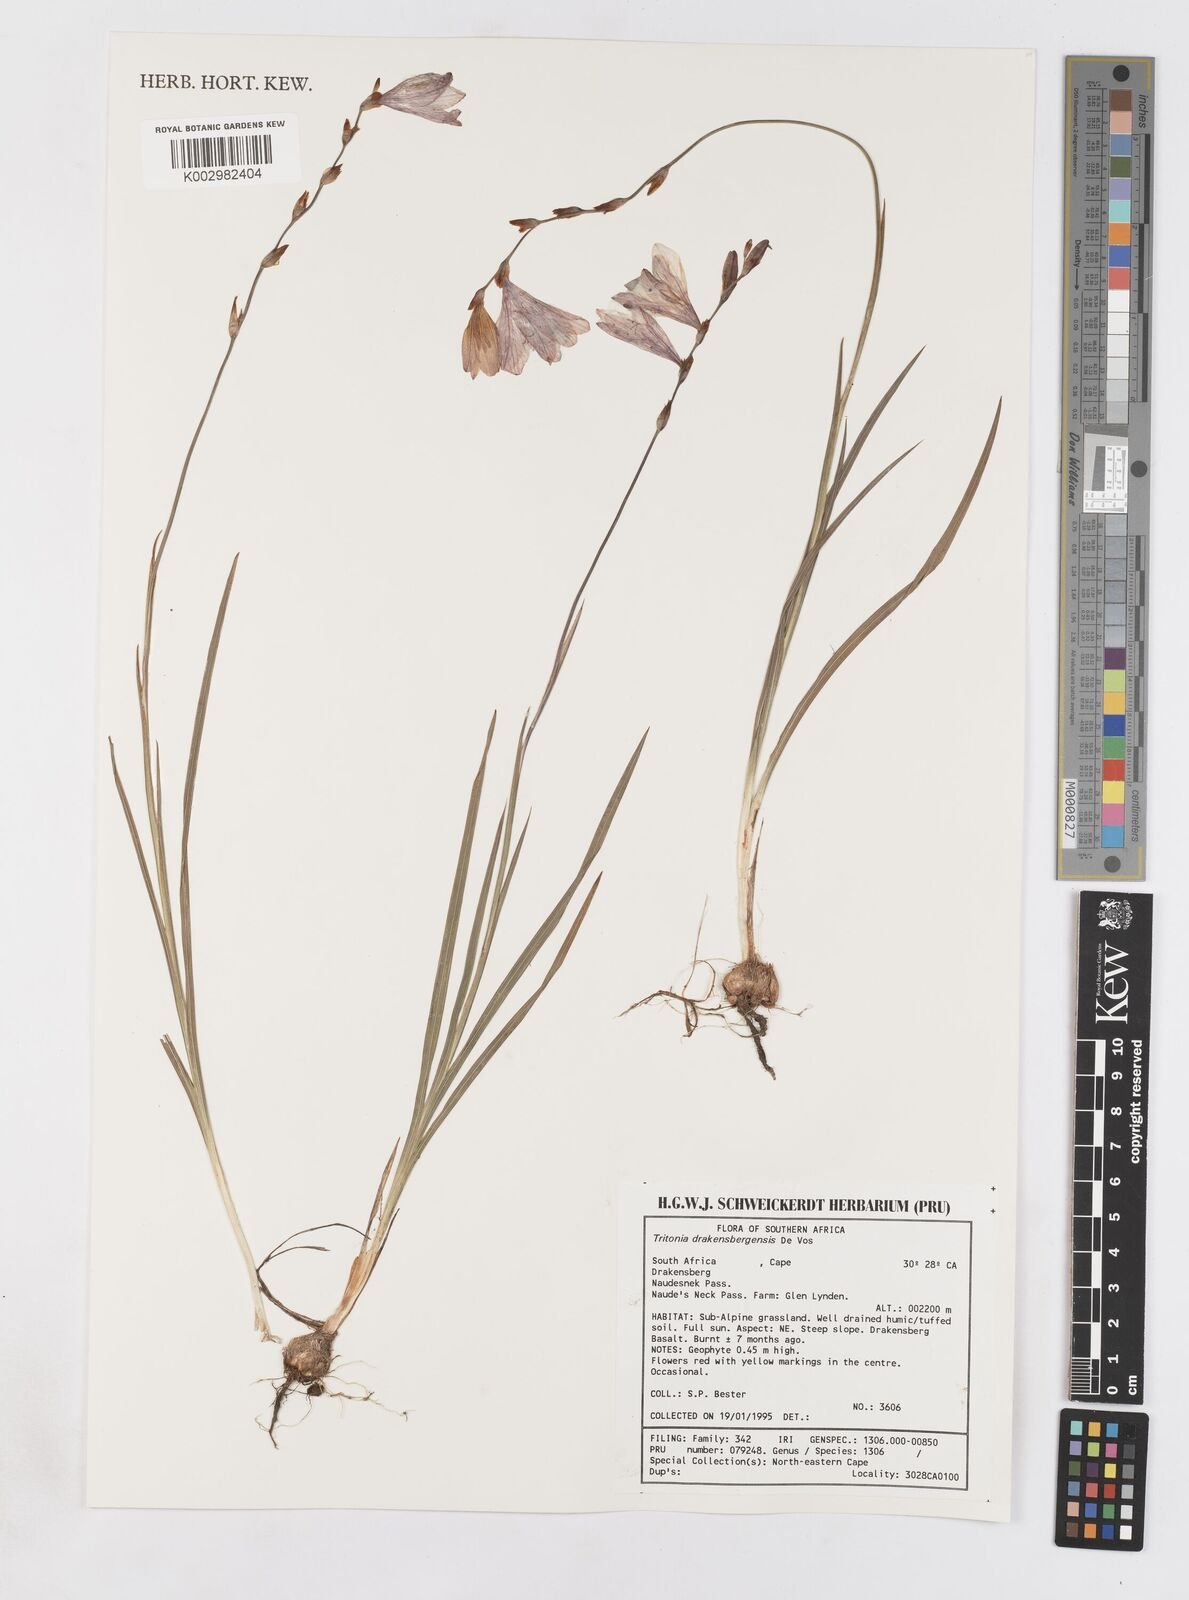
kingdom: Plantae
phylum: Tracheophyta
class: Liliopsida
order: Asparagales
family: Iridaceae
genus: Tritonia
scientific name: Tritonia drakensbergensis
